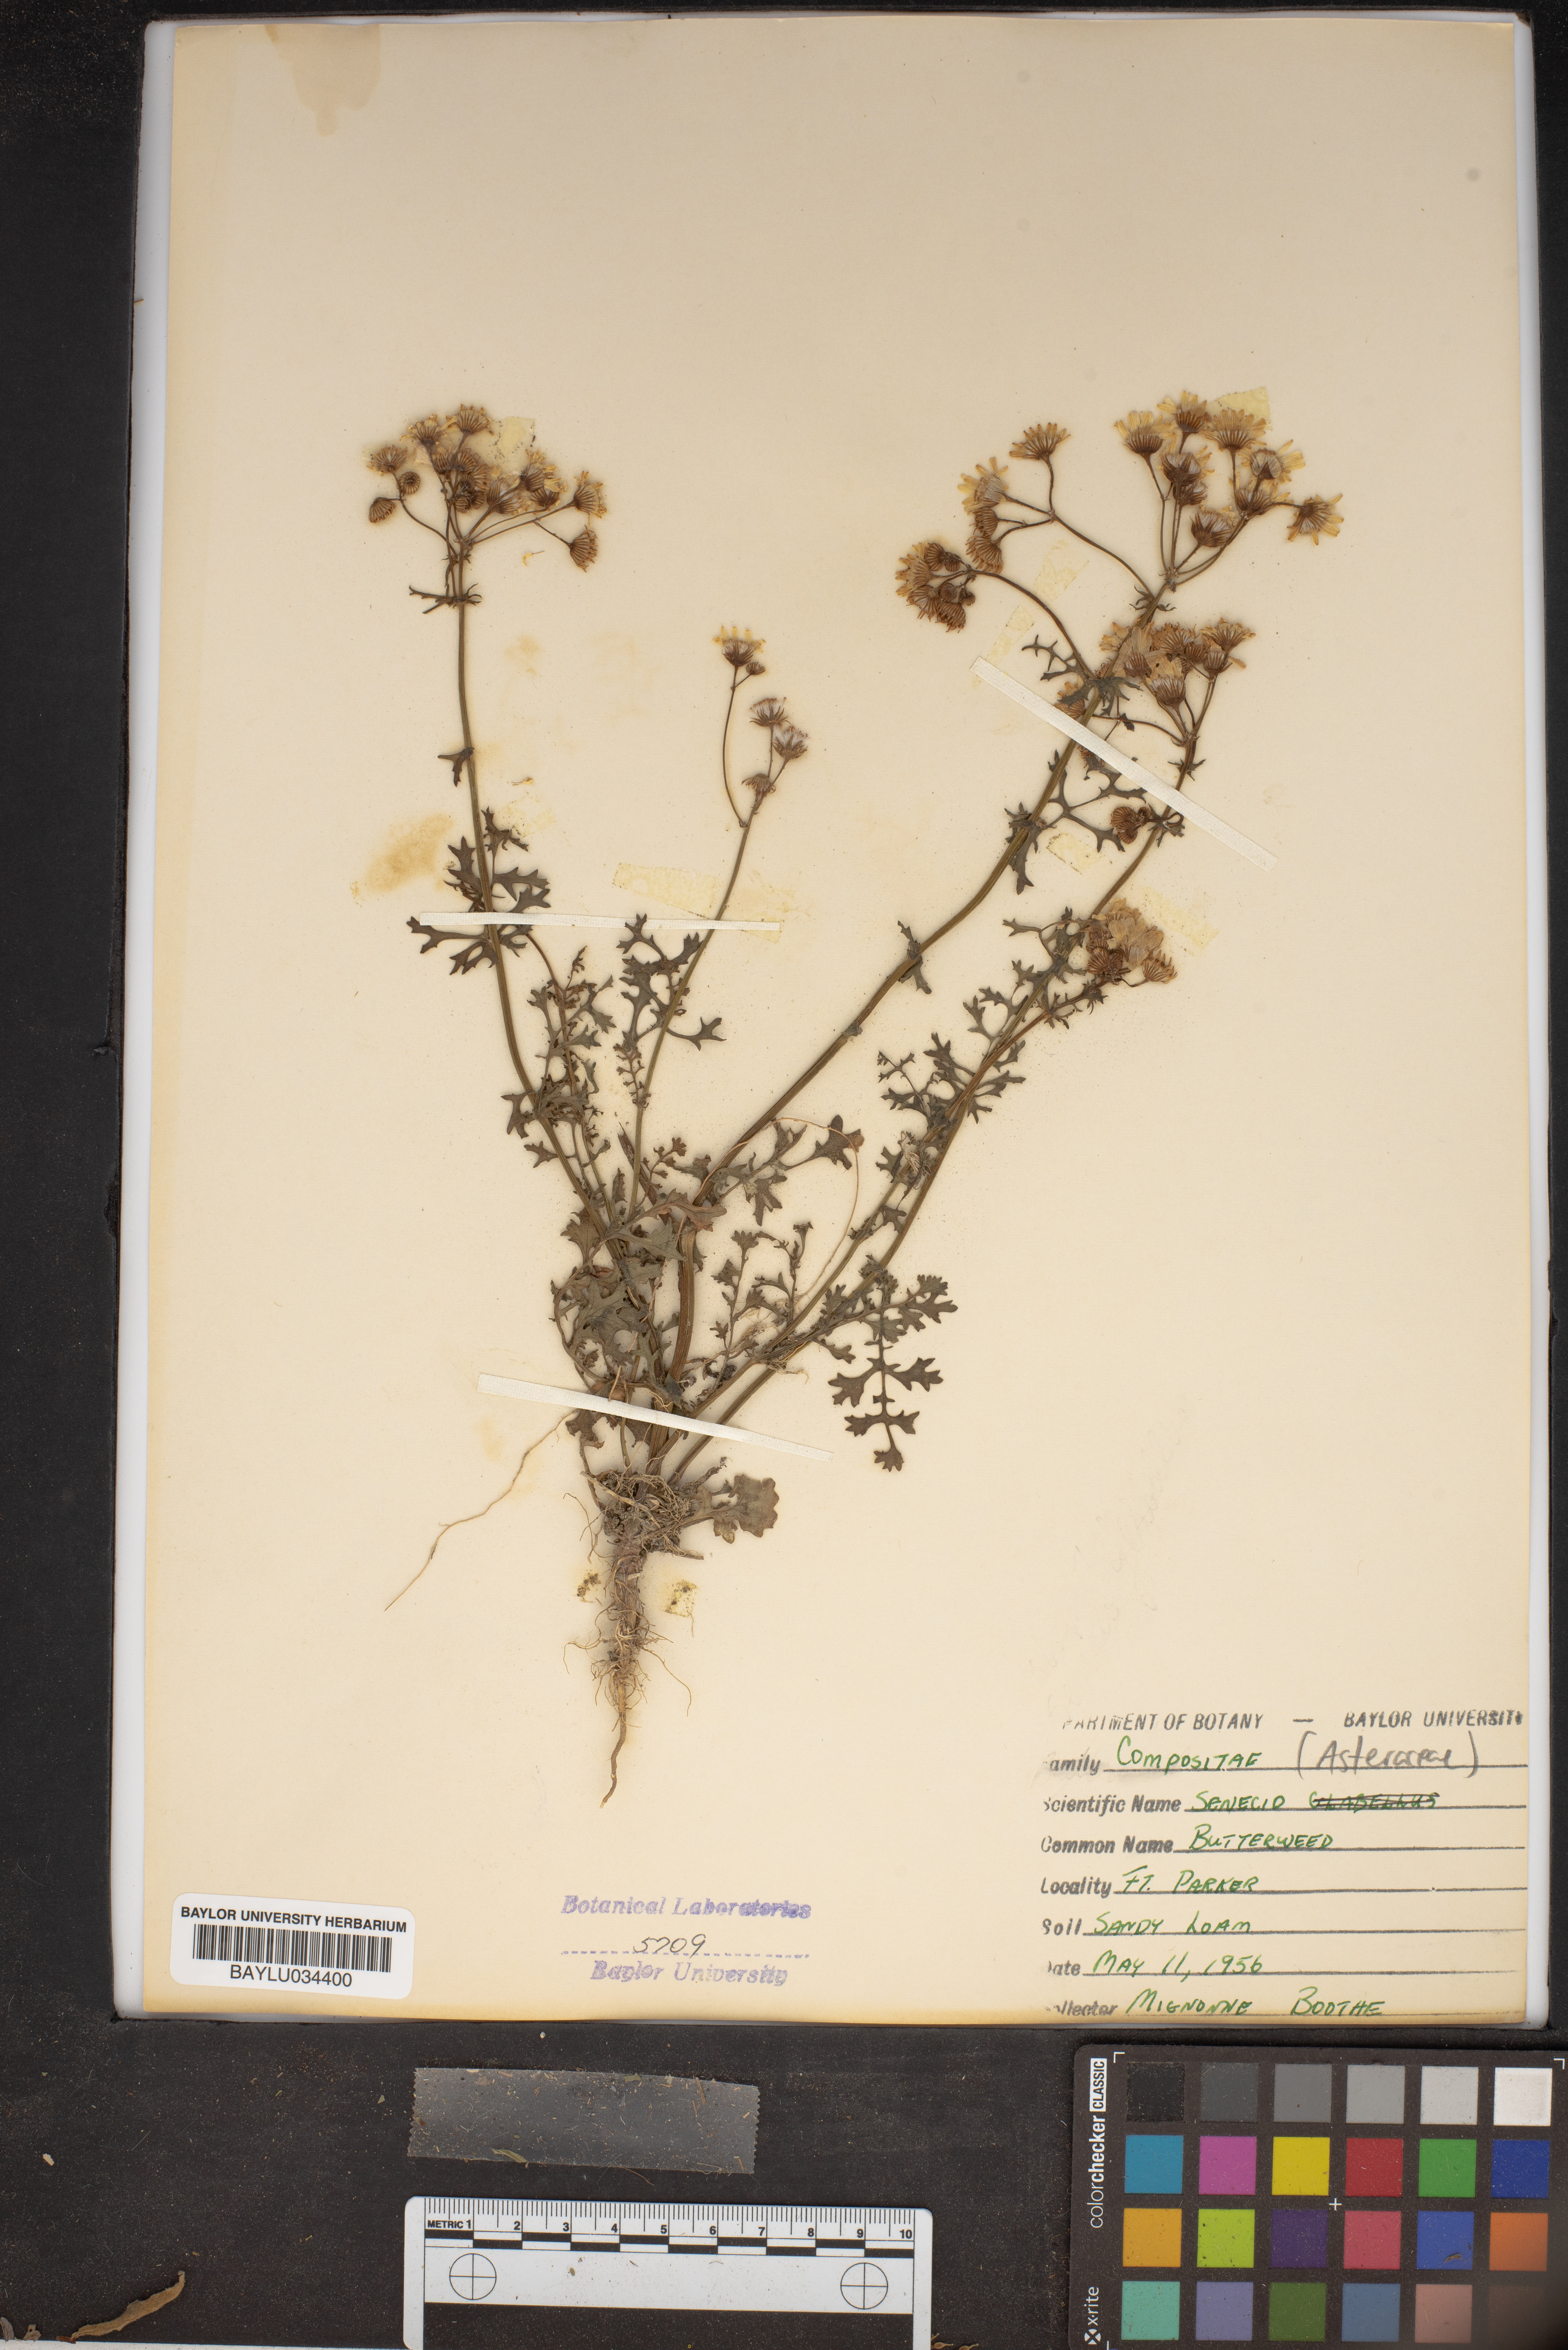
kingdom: Plantae
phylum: Tracheophyta
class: Magnoliopsida
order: Asterales
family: Asteraceae
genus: Tephroseris
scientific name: Tephroseris praticola
